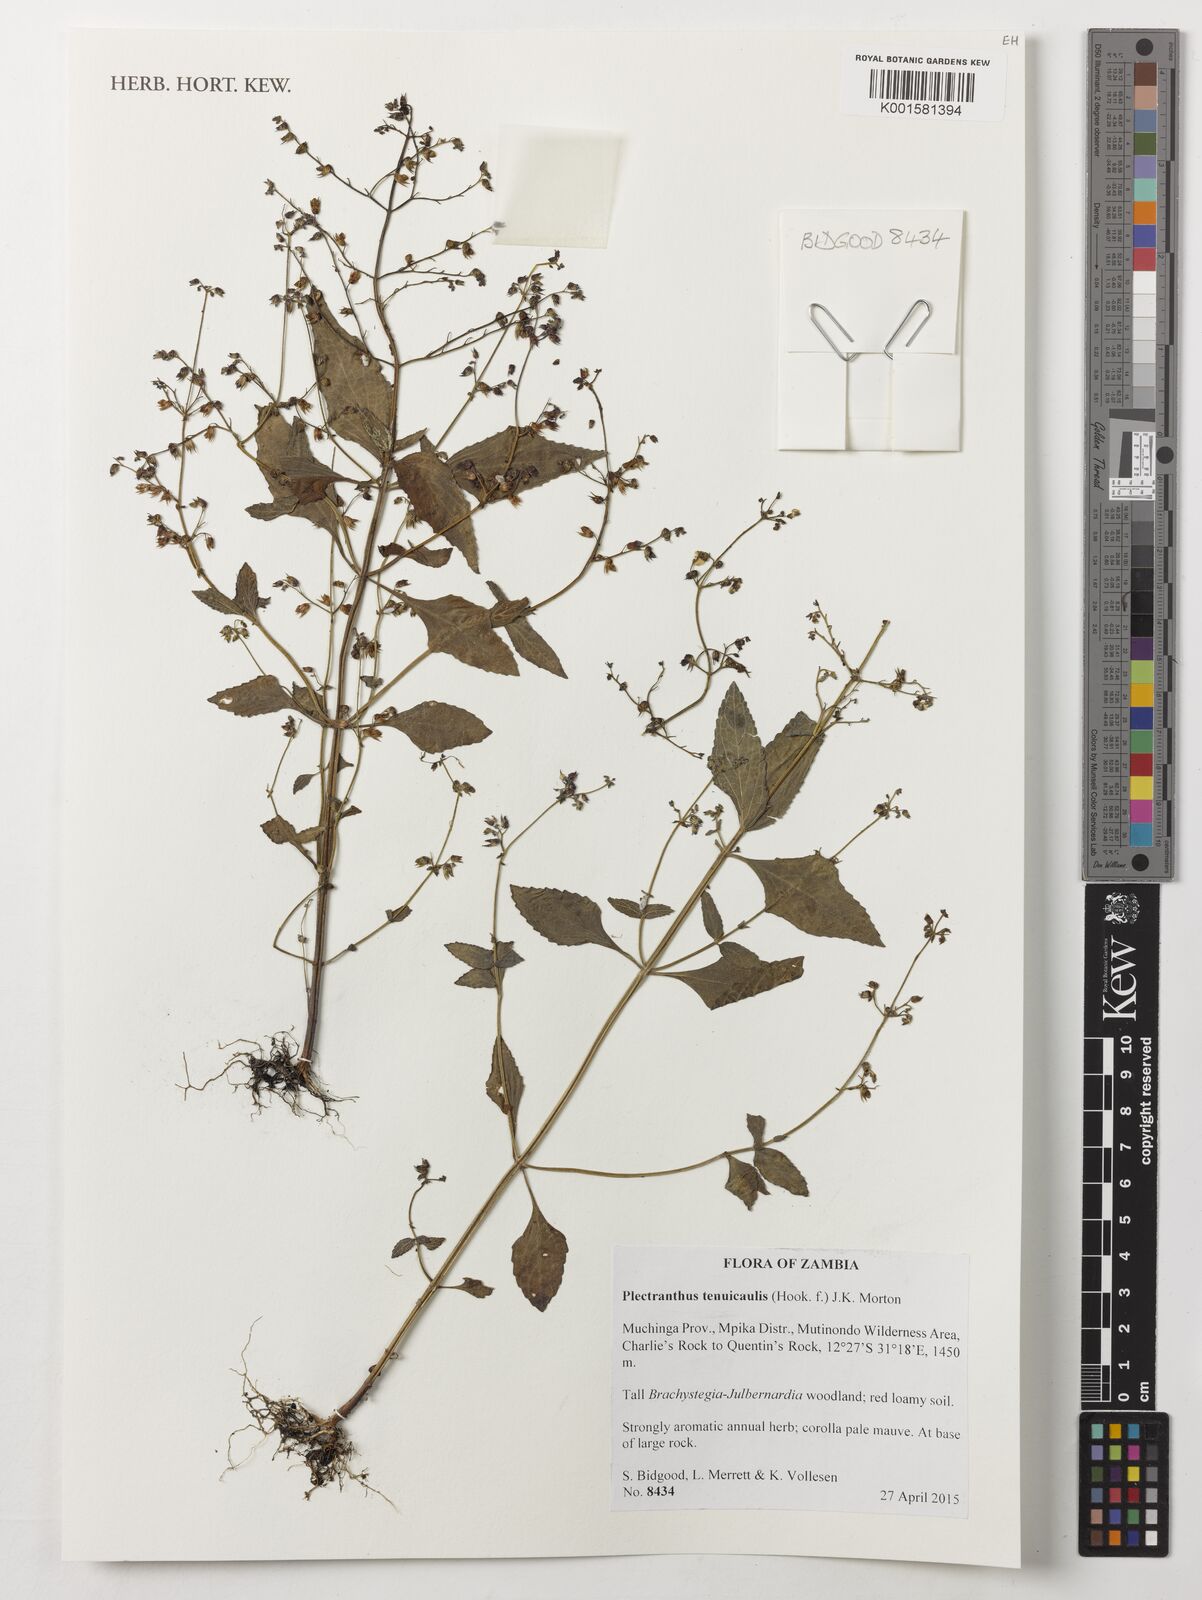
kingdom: Plantae
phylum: Tracheophyta
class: Magnoliopsida
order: Lamiales
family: Lamiaceae
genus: Coleus
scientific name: Coleus tenuicaulis
